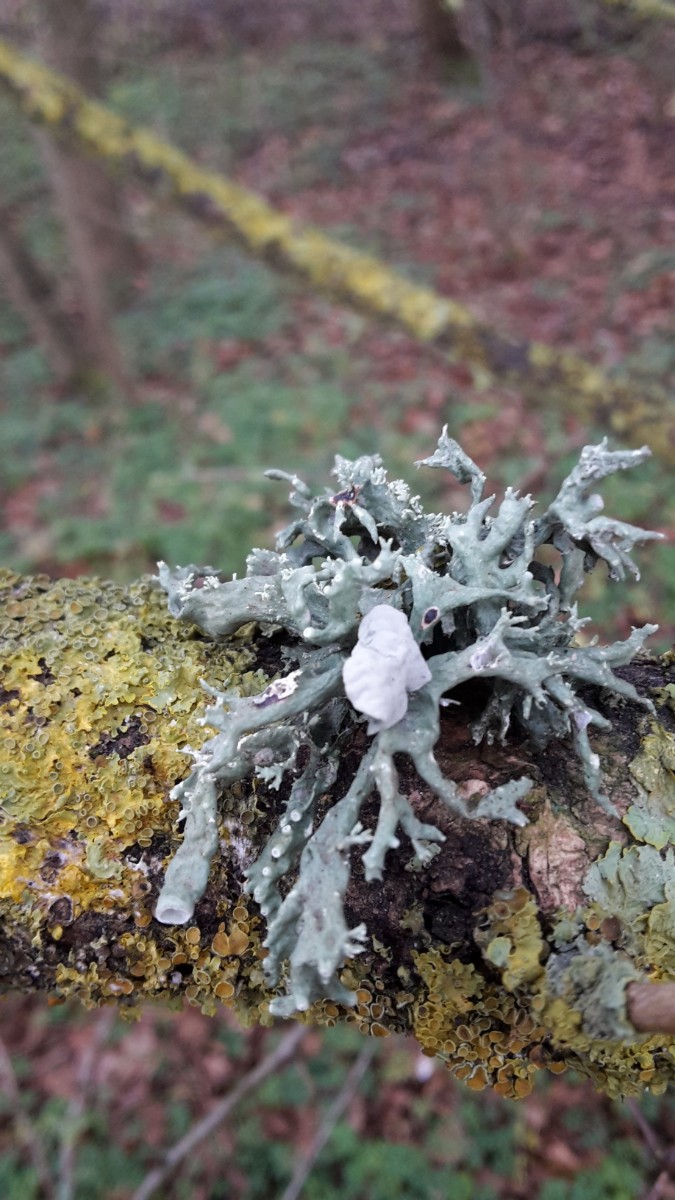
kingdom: Fungi
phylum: Ascomycota
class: Lecanoromycetes
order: Lecanorales
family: Ramalinaceae
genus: Ramalina
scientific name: Ramalina fastigiata
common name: tue-grenlav
